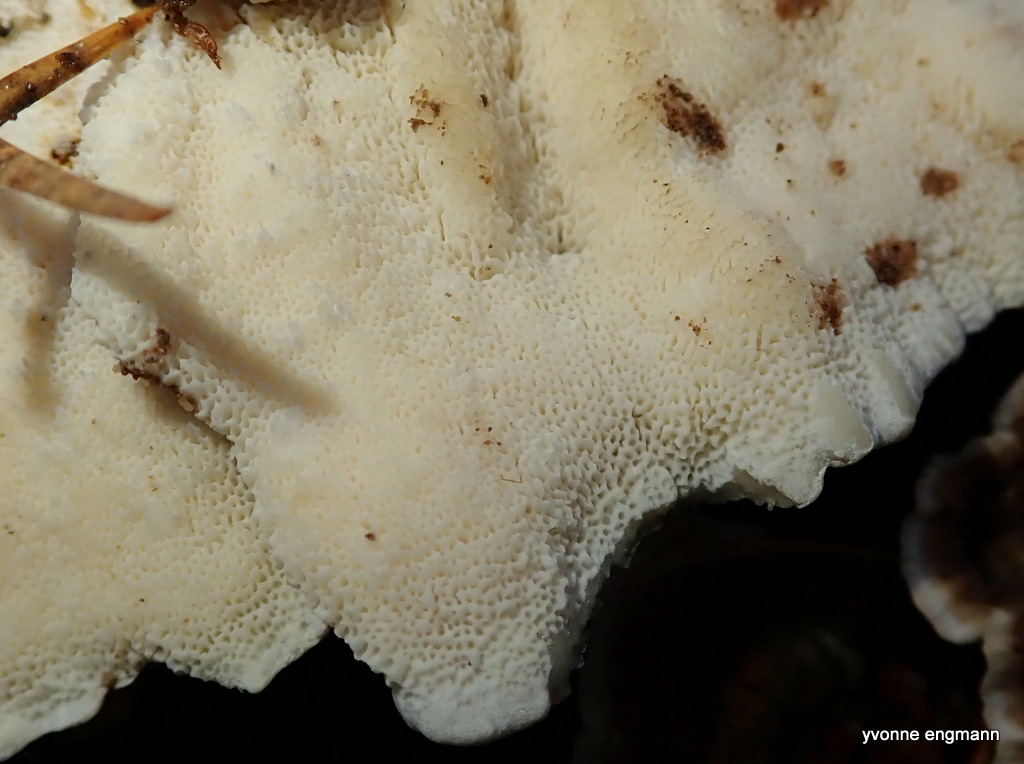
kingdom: Fungi
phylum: Basidiomycota
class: Agaricomycetes
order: Polyporales
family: Polyporaceae
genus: Trametes
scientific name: Trametes versicolor
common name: broget læderporesvamp
